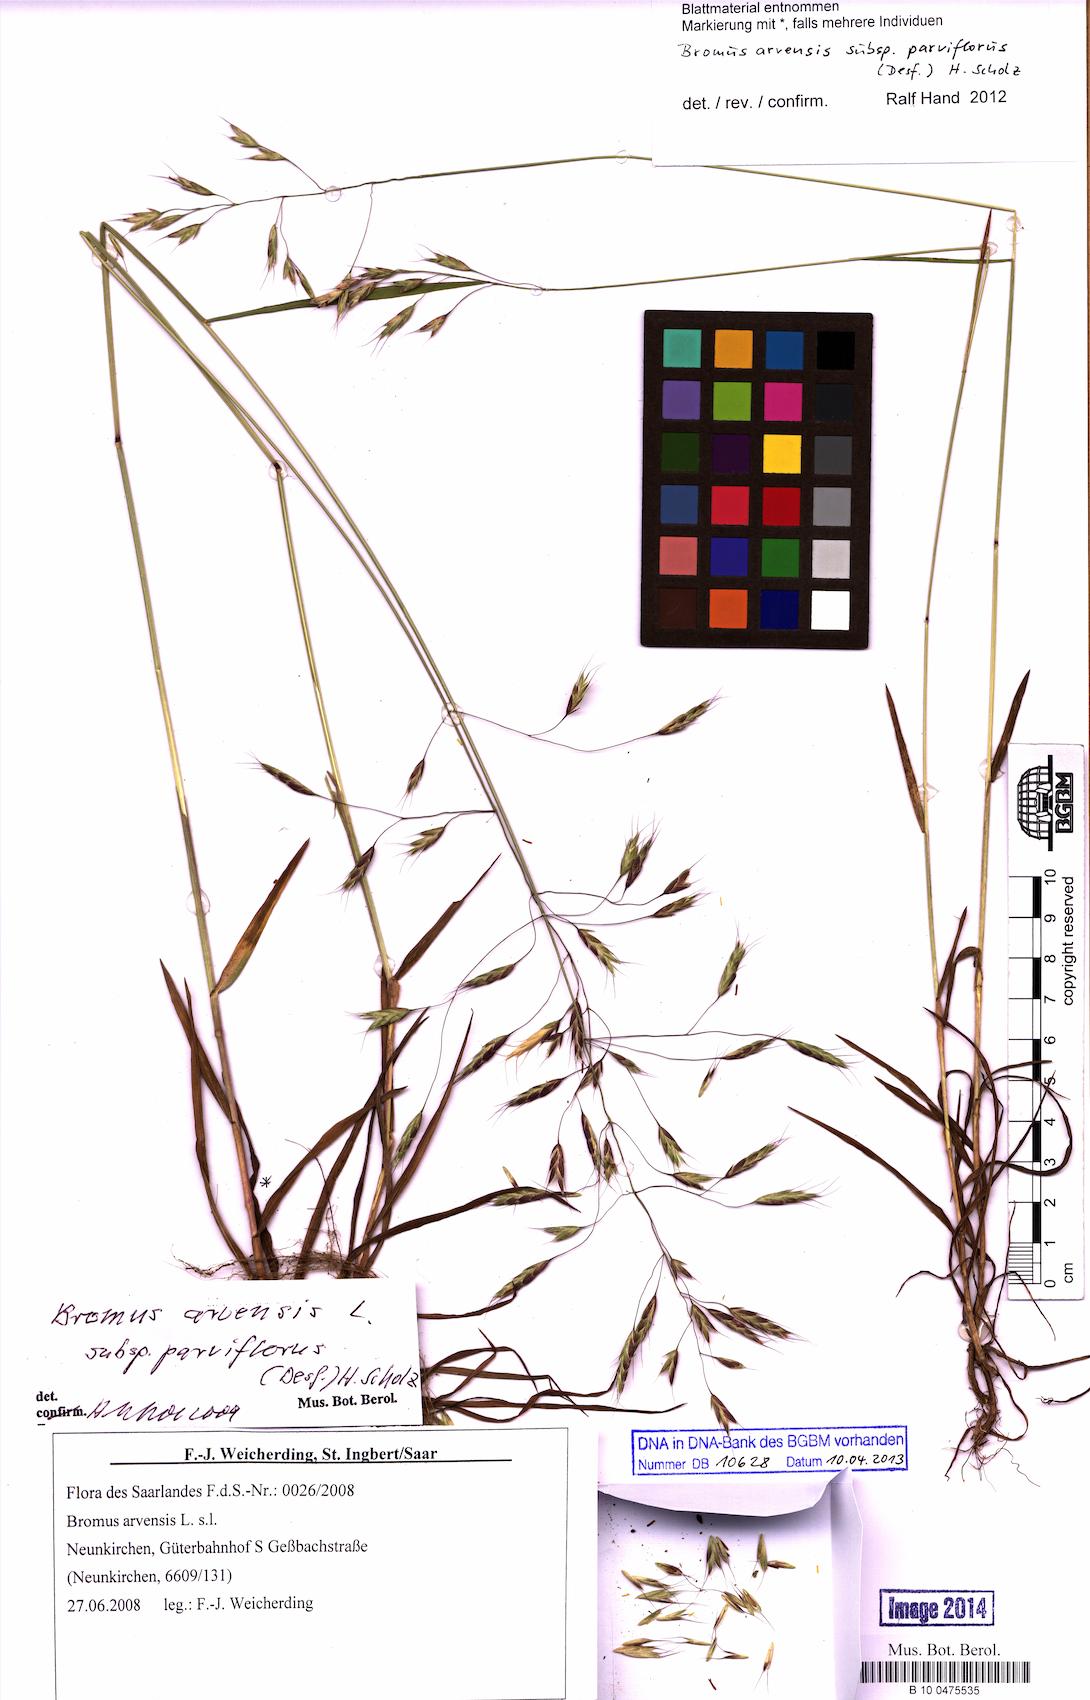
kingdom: Plantae
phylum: Tracheophyta
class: Liliopsida
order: Poales
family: Poaceae
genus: Bromus
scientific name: Bromus arvensis
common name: Field brome
